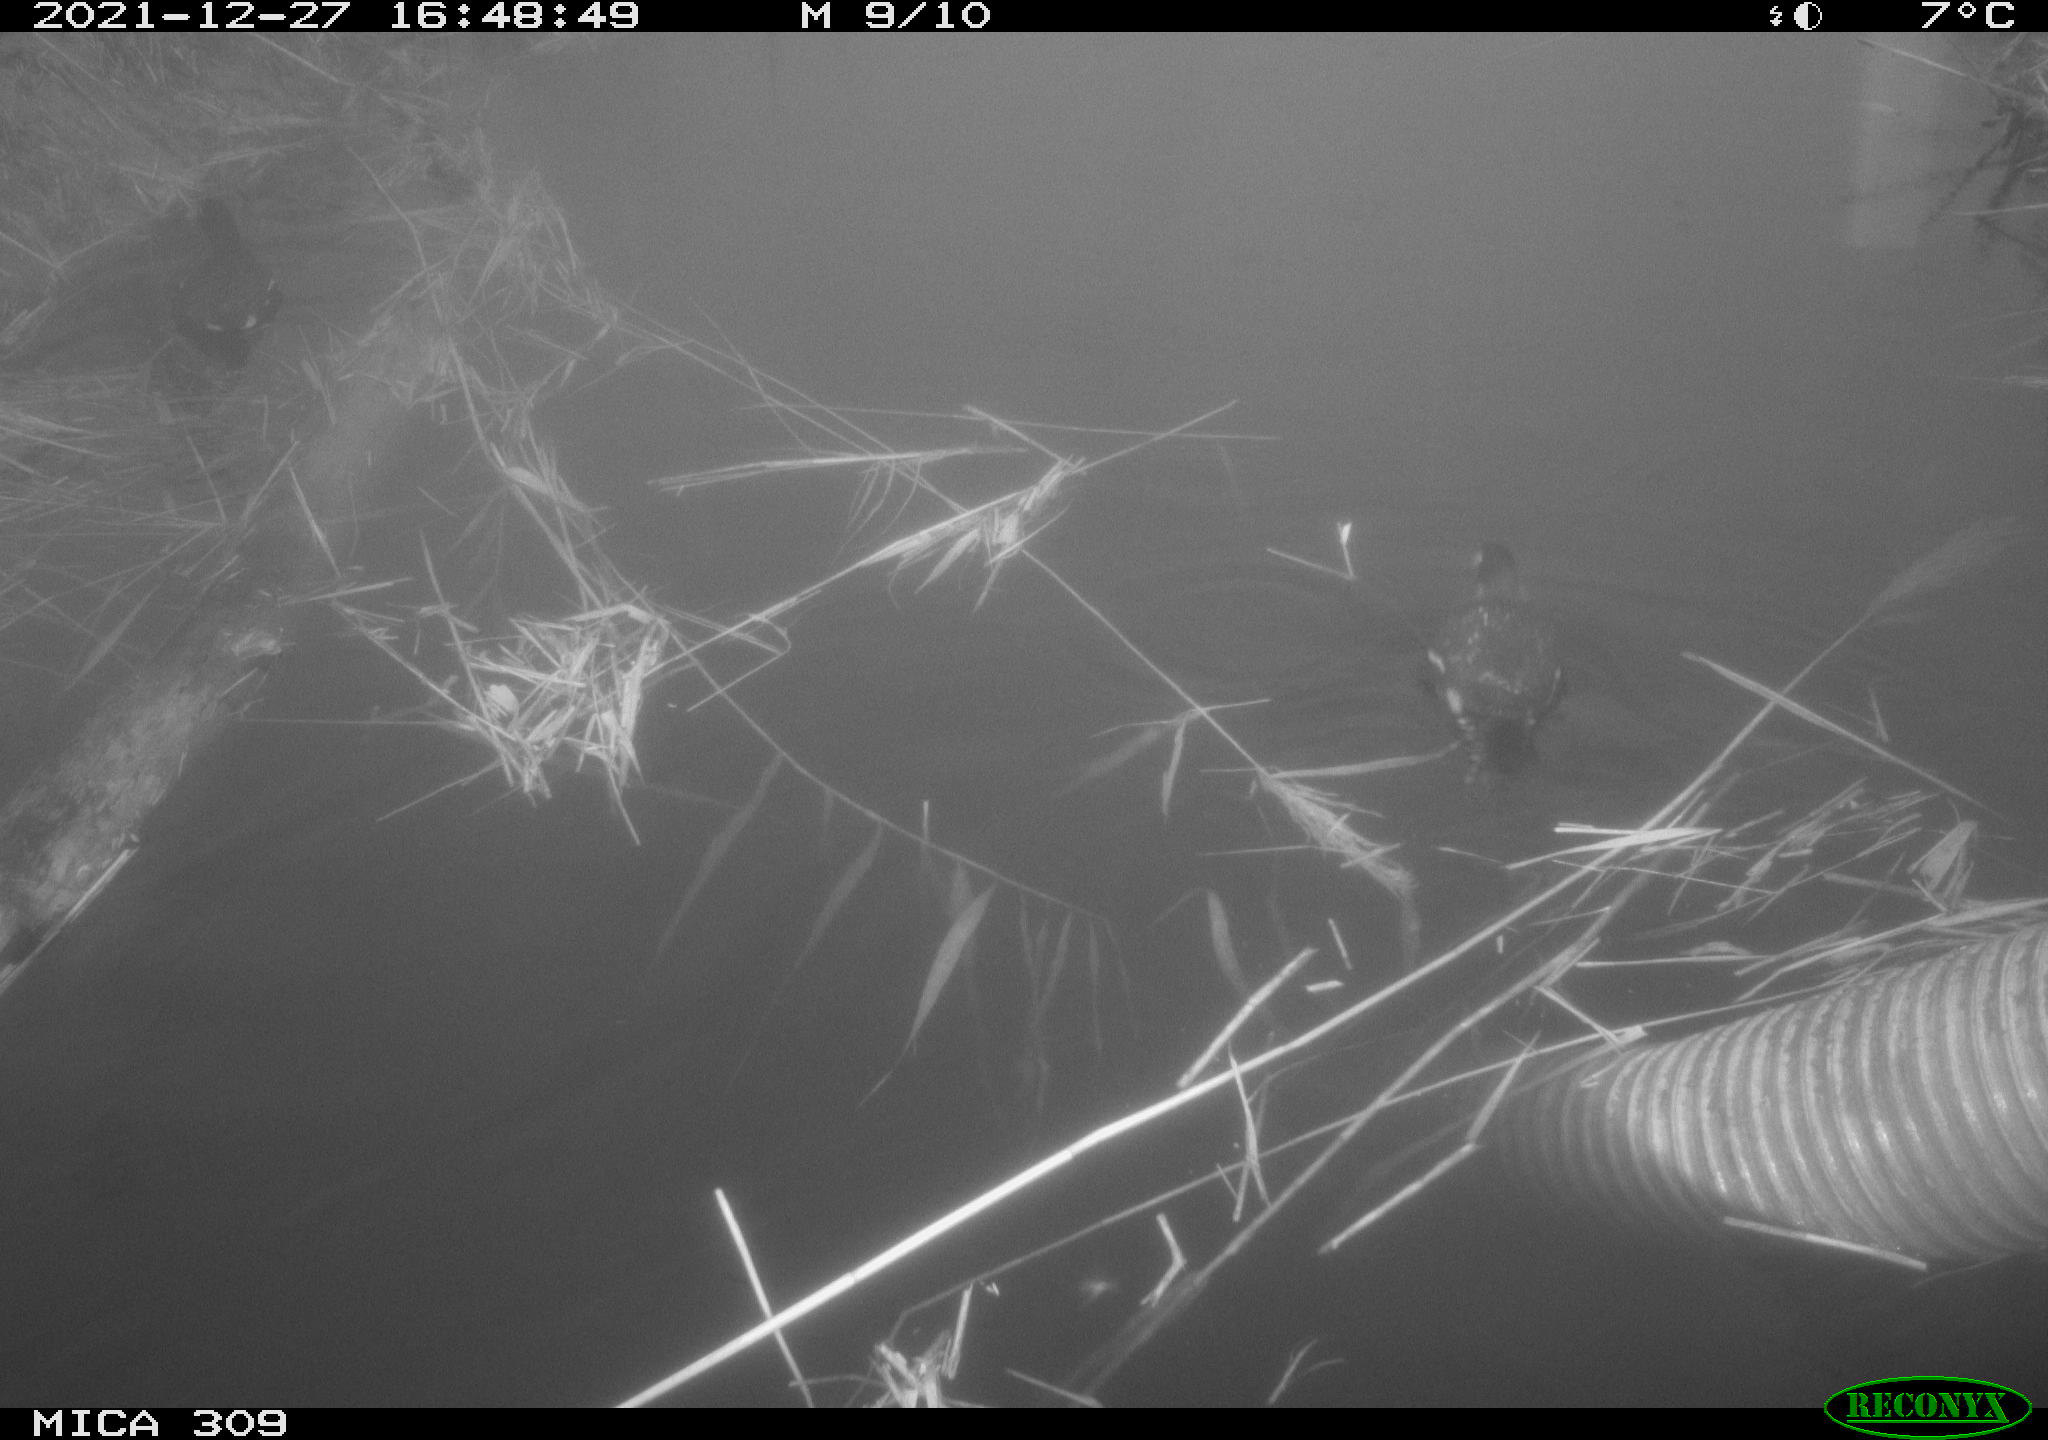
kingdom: Animalia
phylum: Chordata
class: Aves
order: Gruiformes
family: Rallidae
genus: Gallinula
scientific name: Gallinula chloropus
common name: Common moorhen
